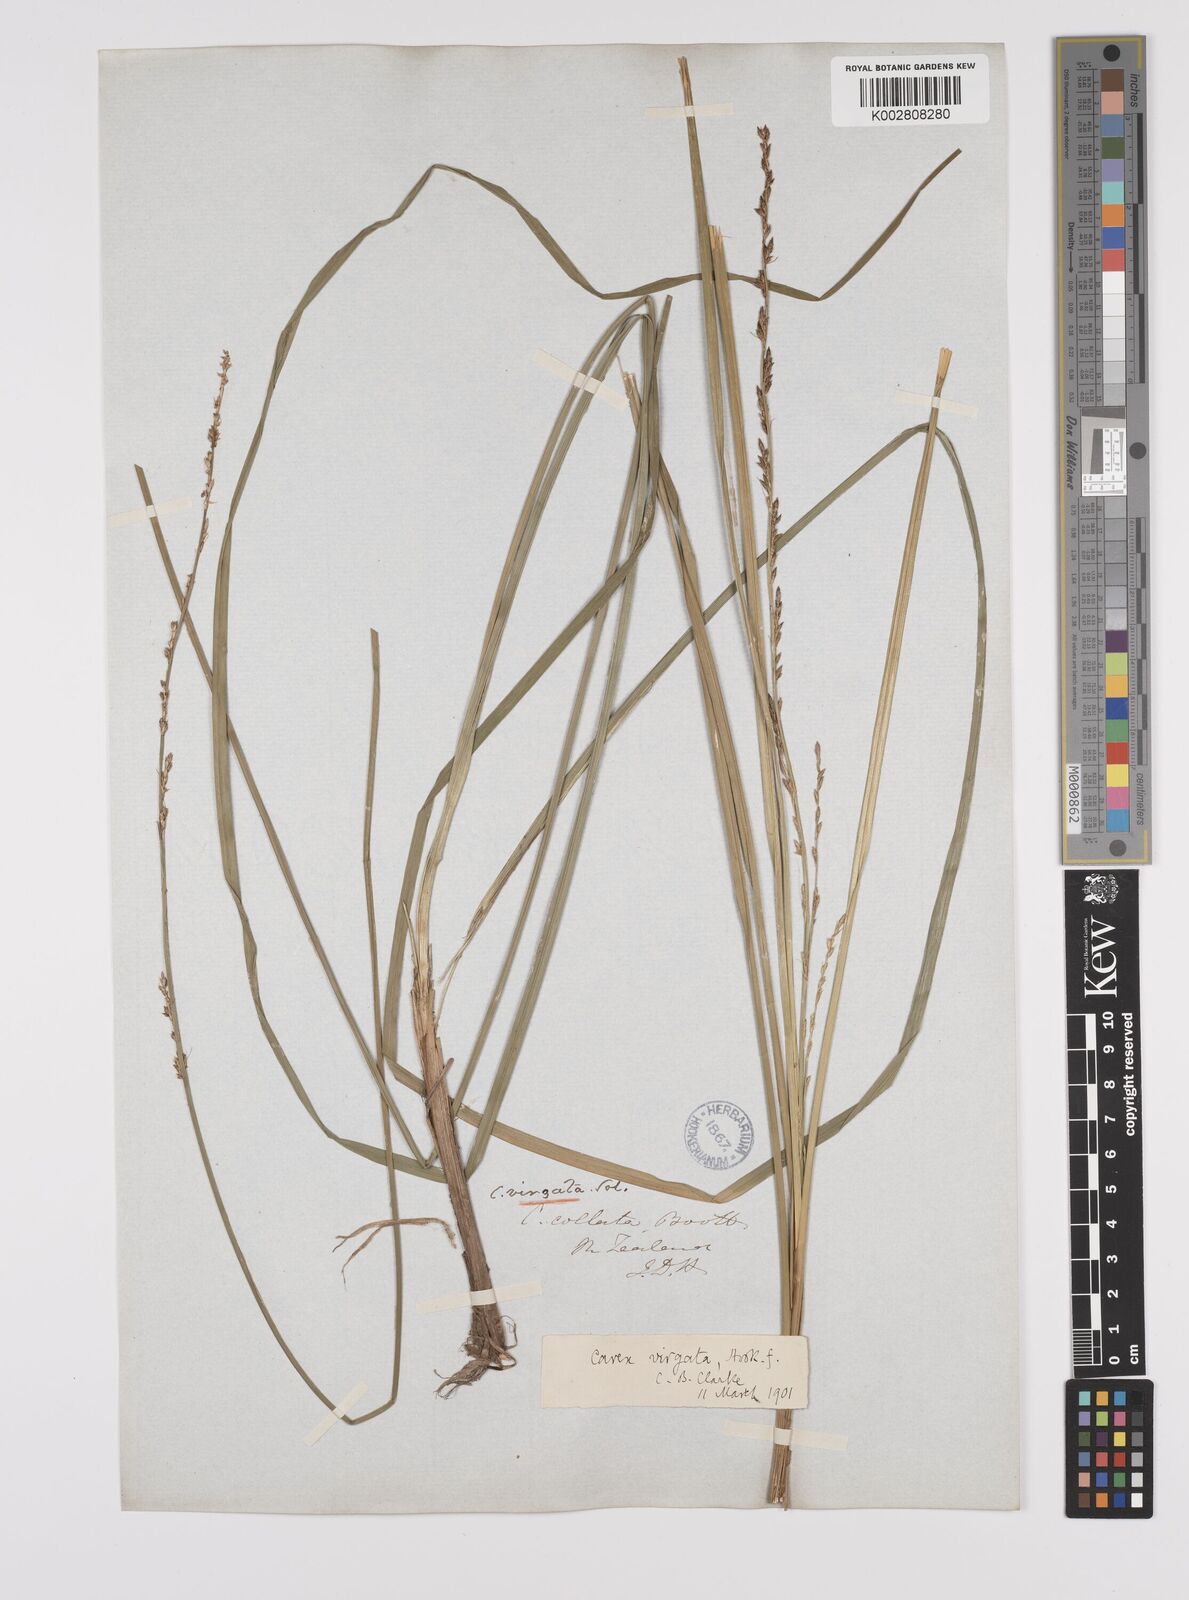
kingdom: Plantae
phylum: Tracheophyta
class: Liliopsida
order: Poales
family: Cyperaceae
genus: Carex
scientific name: Carex appressa
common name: Tussock sedge
